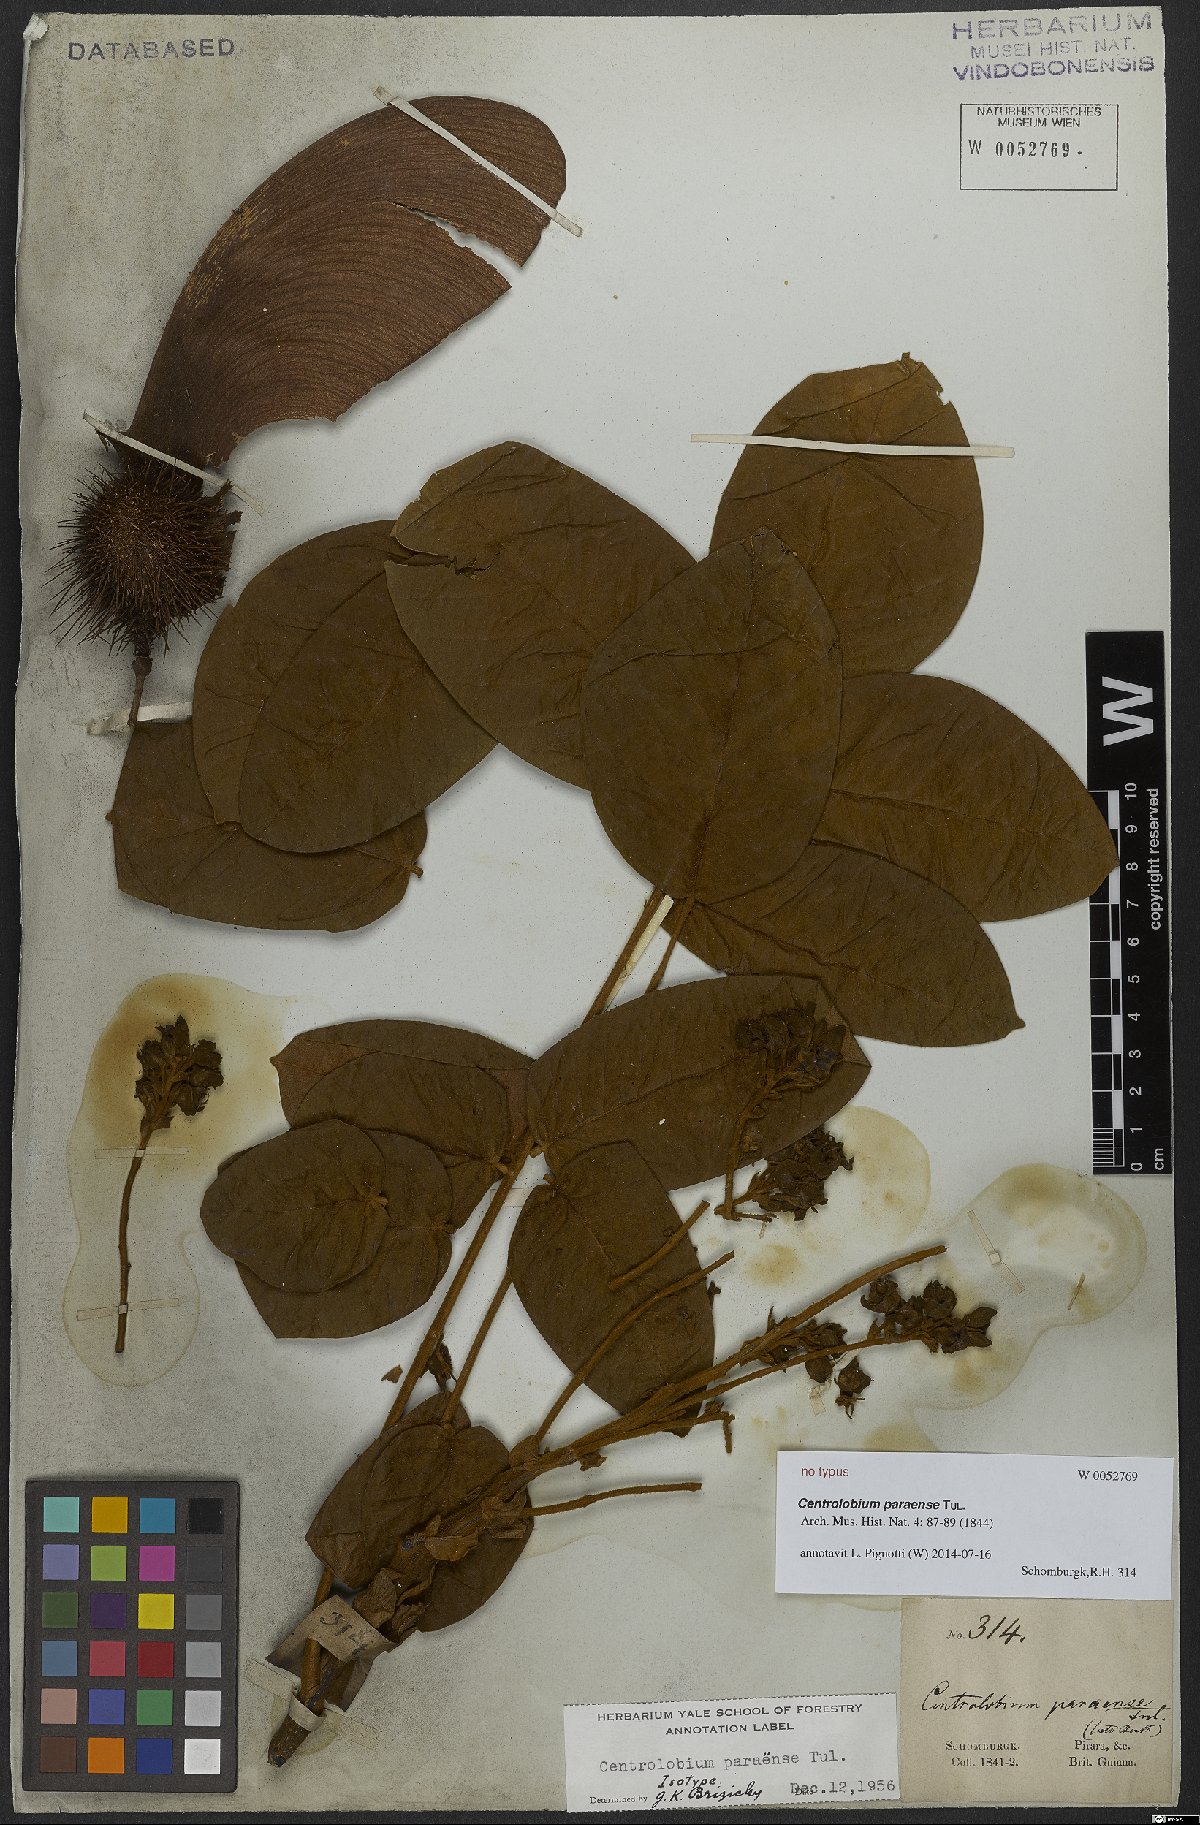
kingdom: Plantae
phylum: Tracheophyta
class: Magnoliopsida
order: Fabales
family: Fabaceae
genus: Centrolobium
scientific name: Centrolobium paraense
